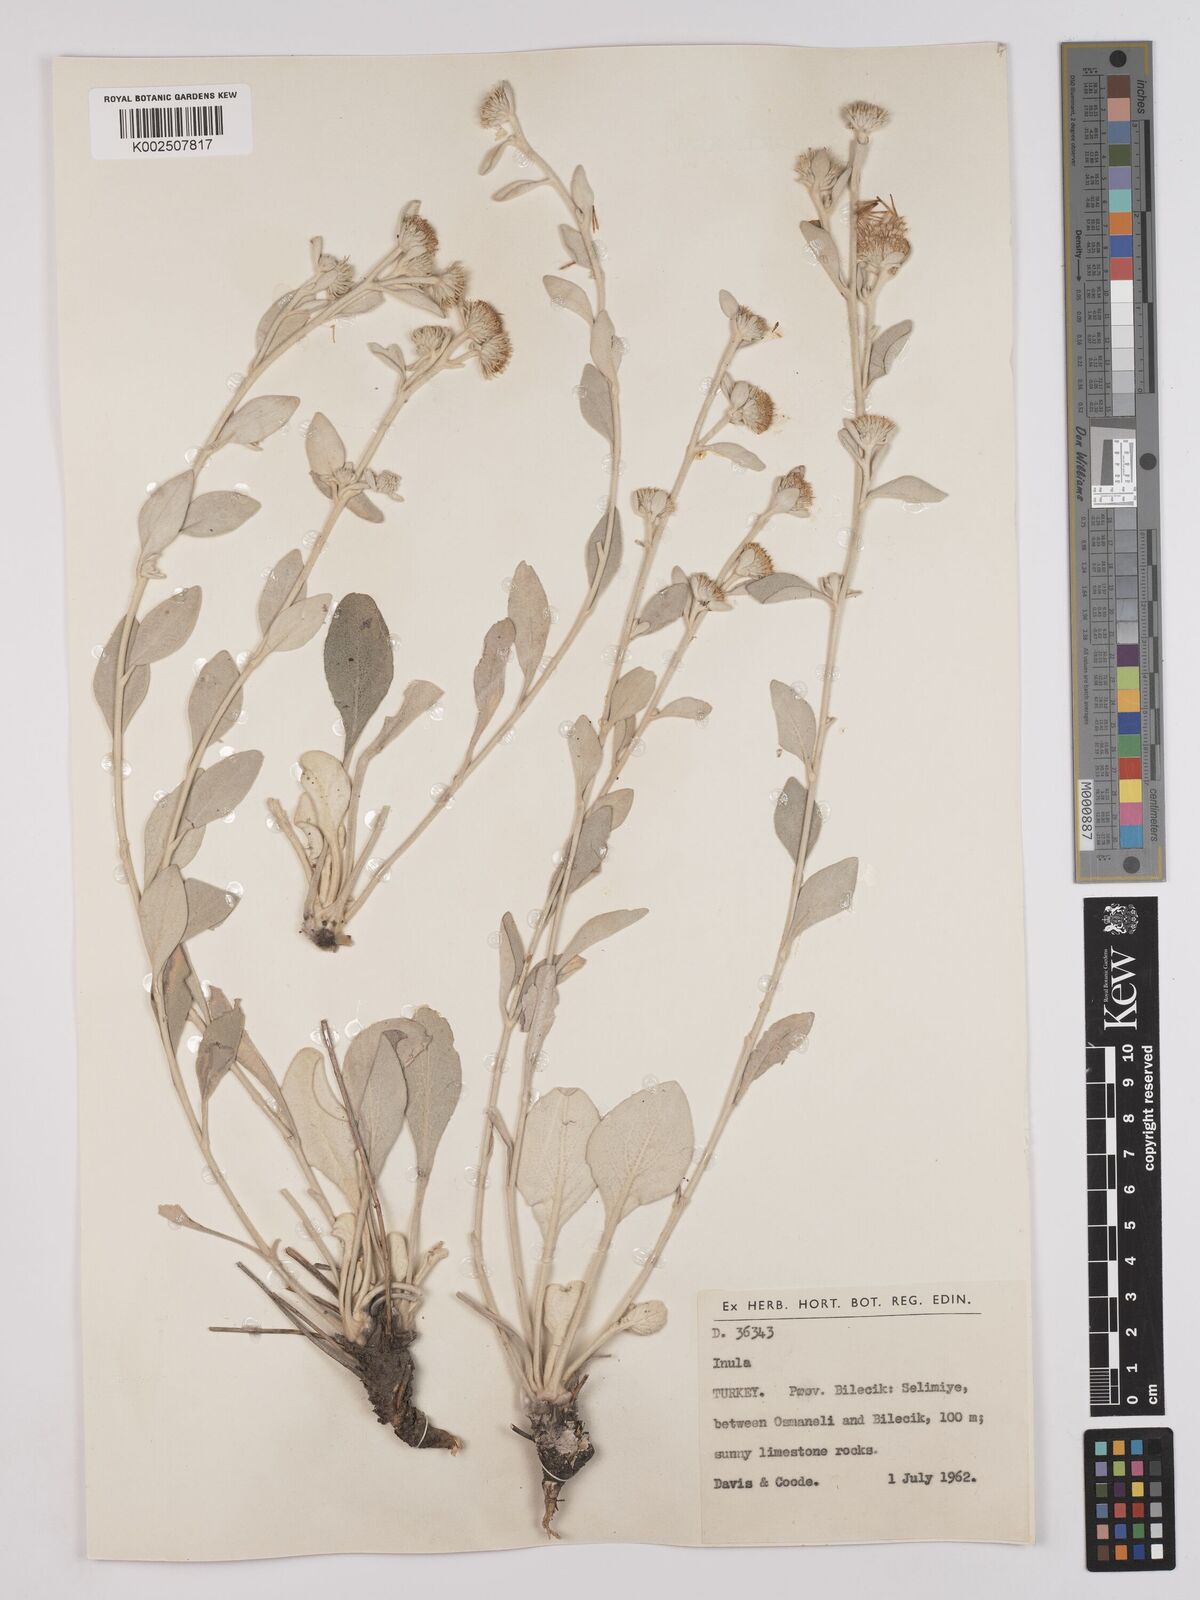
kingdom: Plantae
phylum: Tracheophyta
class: Magnoliopsida
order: Asterales
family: Asteraceae
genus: Pentanema
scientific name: Pentanema verbascifolium
